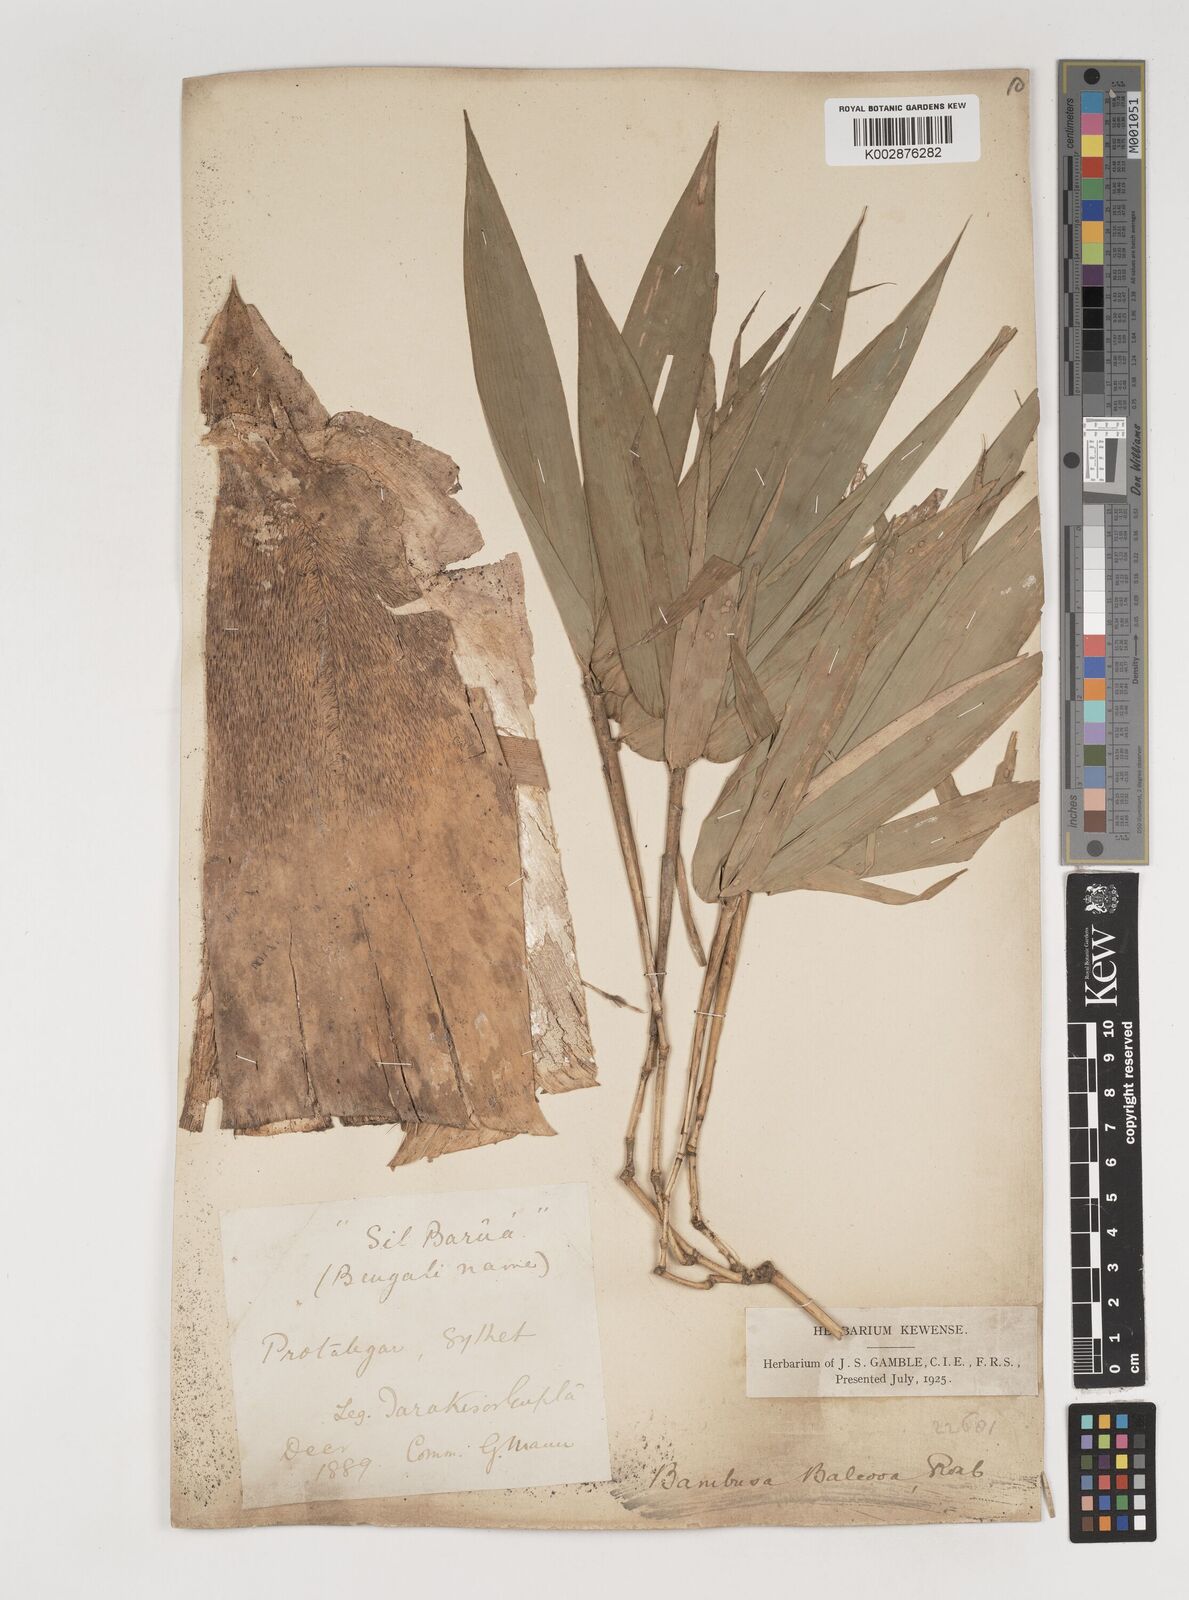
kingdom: Plantae
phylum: Tracheophyta
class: Liliopsida
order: Poales
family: Poaceae
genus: Bambusa
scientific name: Bambusa balcooa
